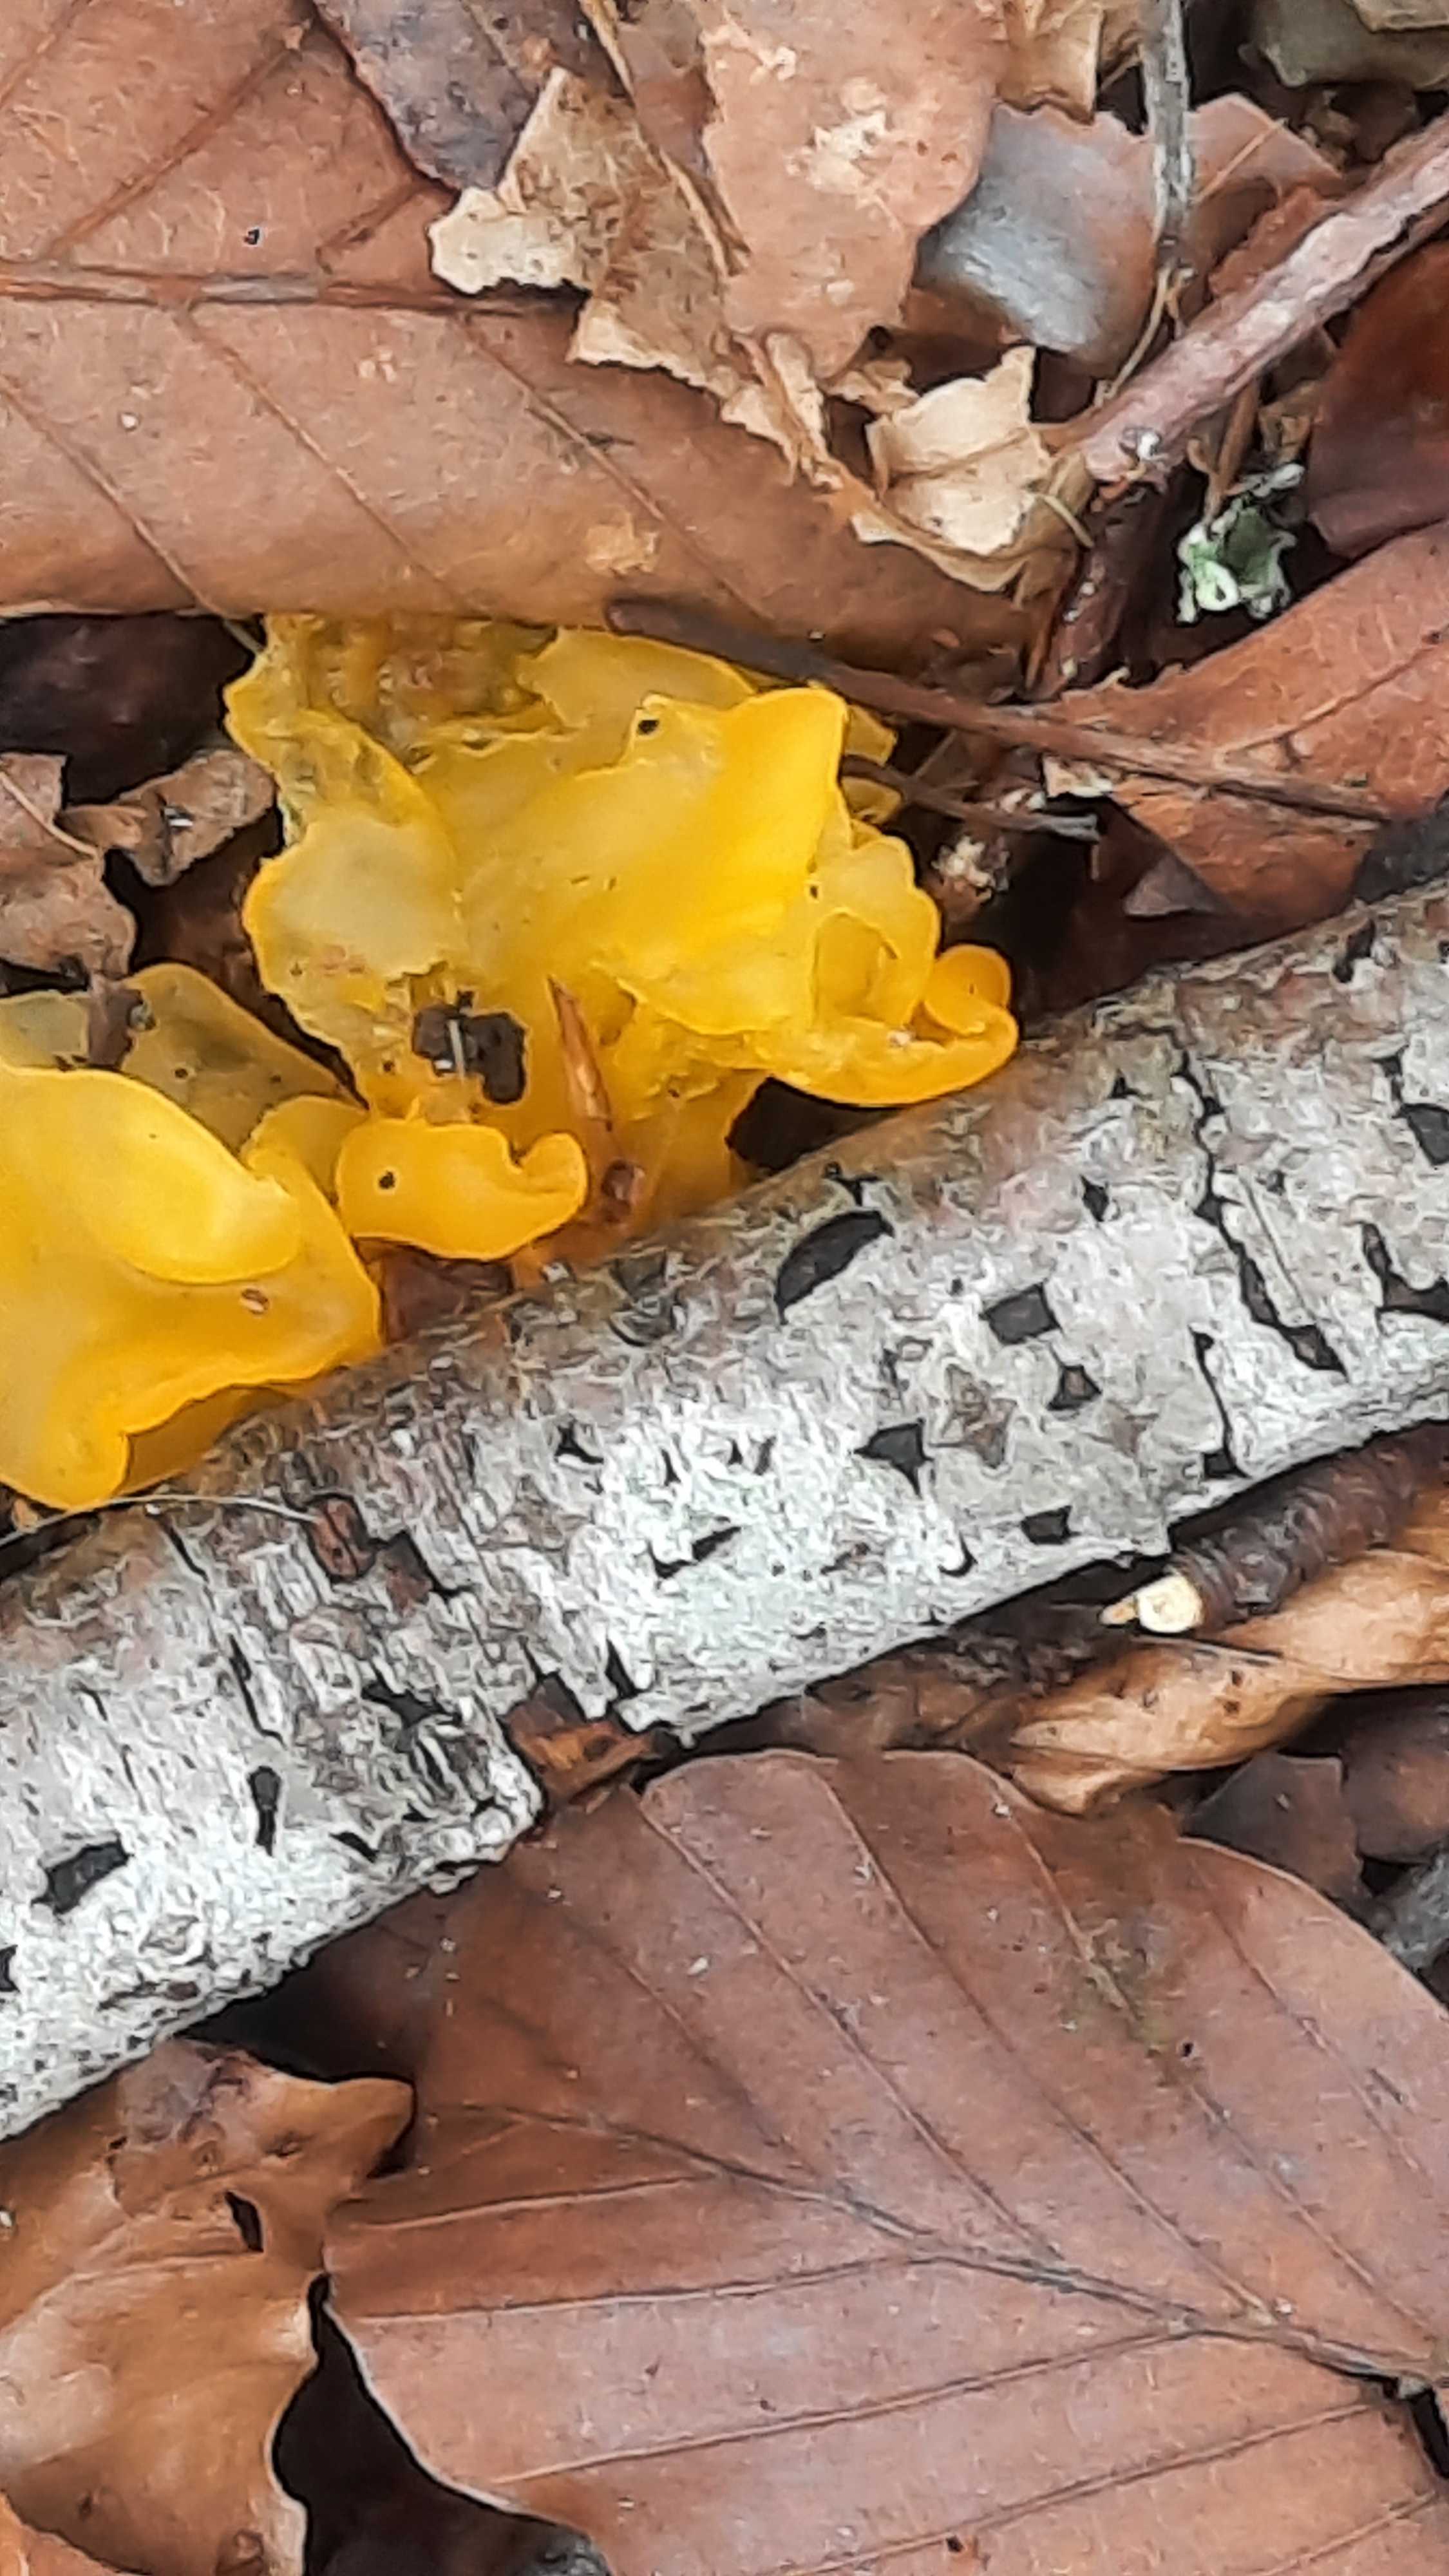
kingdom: Fungi
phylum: Basidiomycota
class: Tremellomycetes
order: Tremellales
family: Tremellaceae
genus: Tremella
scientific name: Tremella mesenterica
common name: gul bævresvamp
